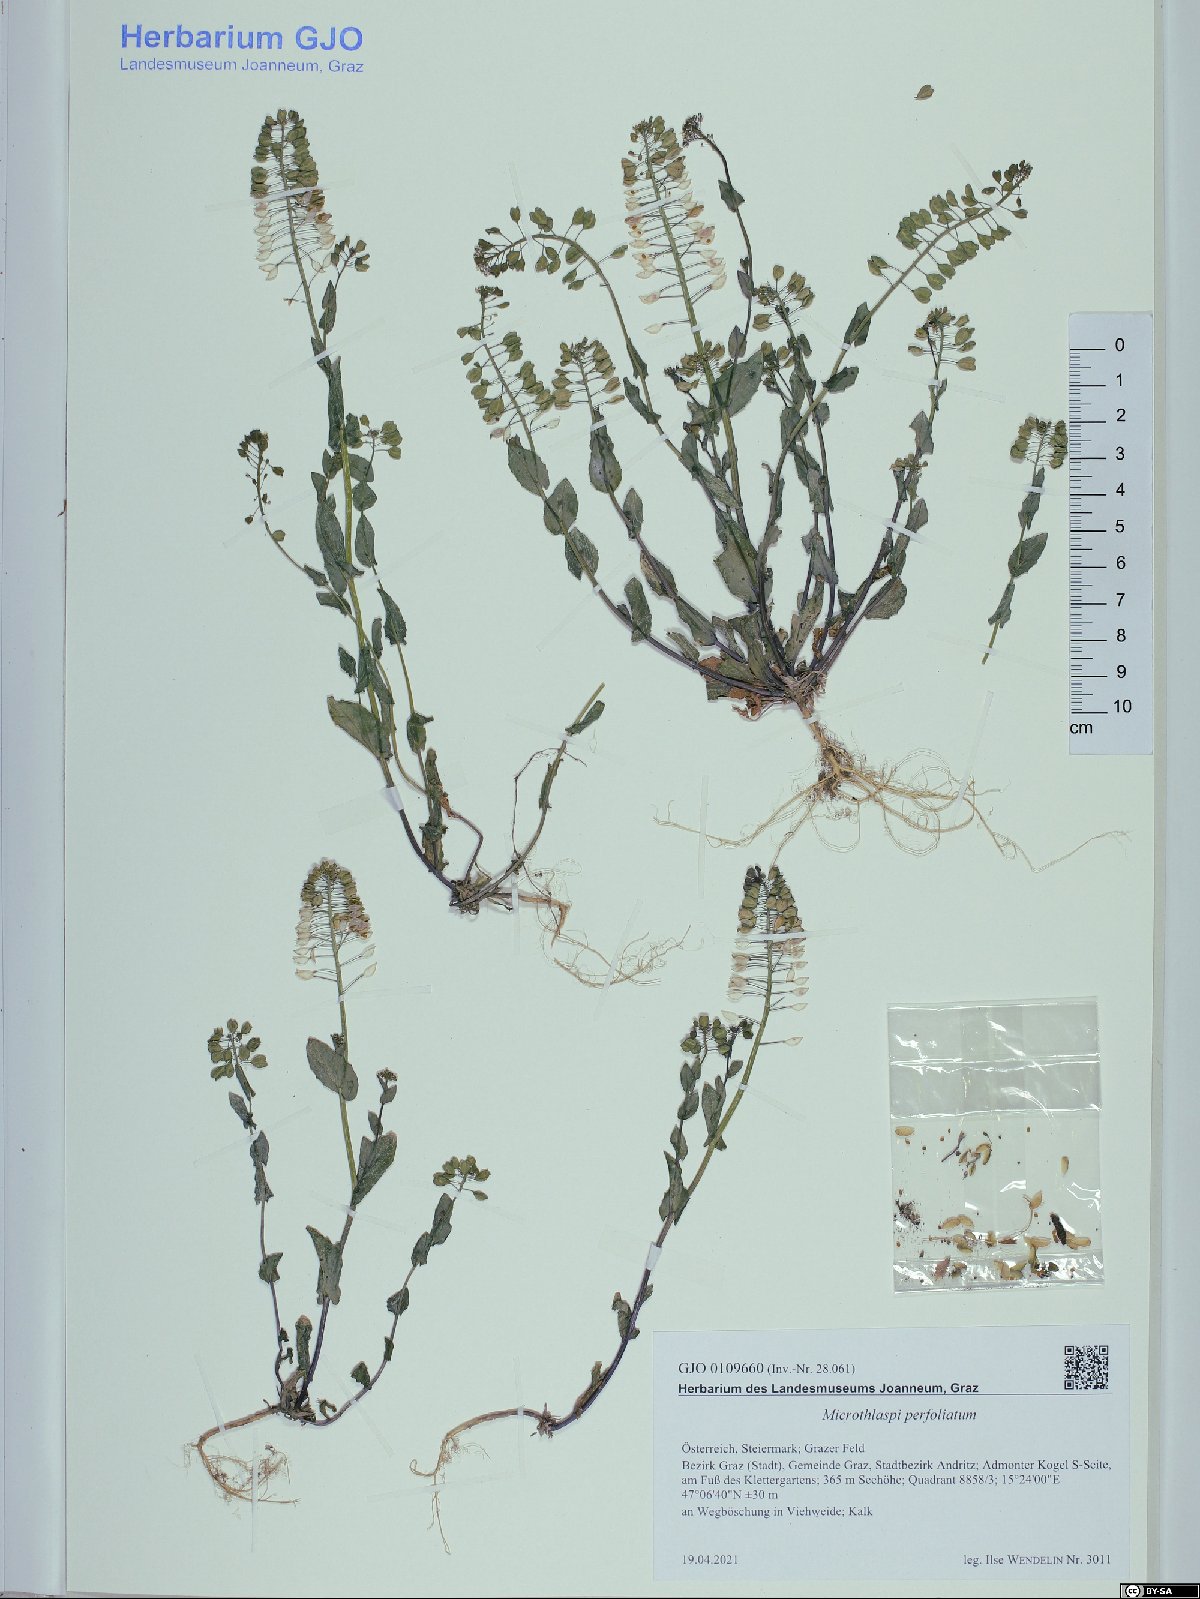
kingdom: Plantae
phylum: Tracheophyta
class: Magnoliopsida
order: Brassicales
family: Brassicaceae
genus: Noccaea
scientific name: Noccaea perfoliata
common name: Perfoliate pennycress
